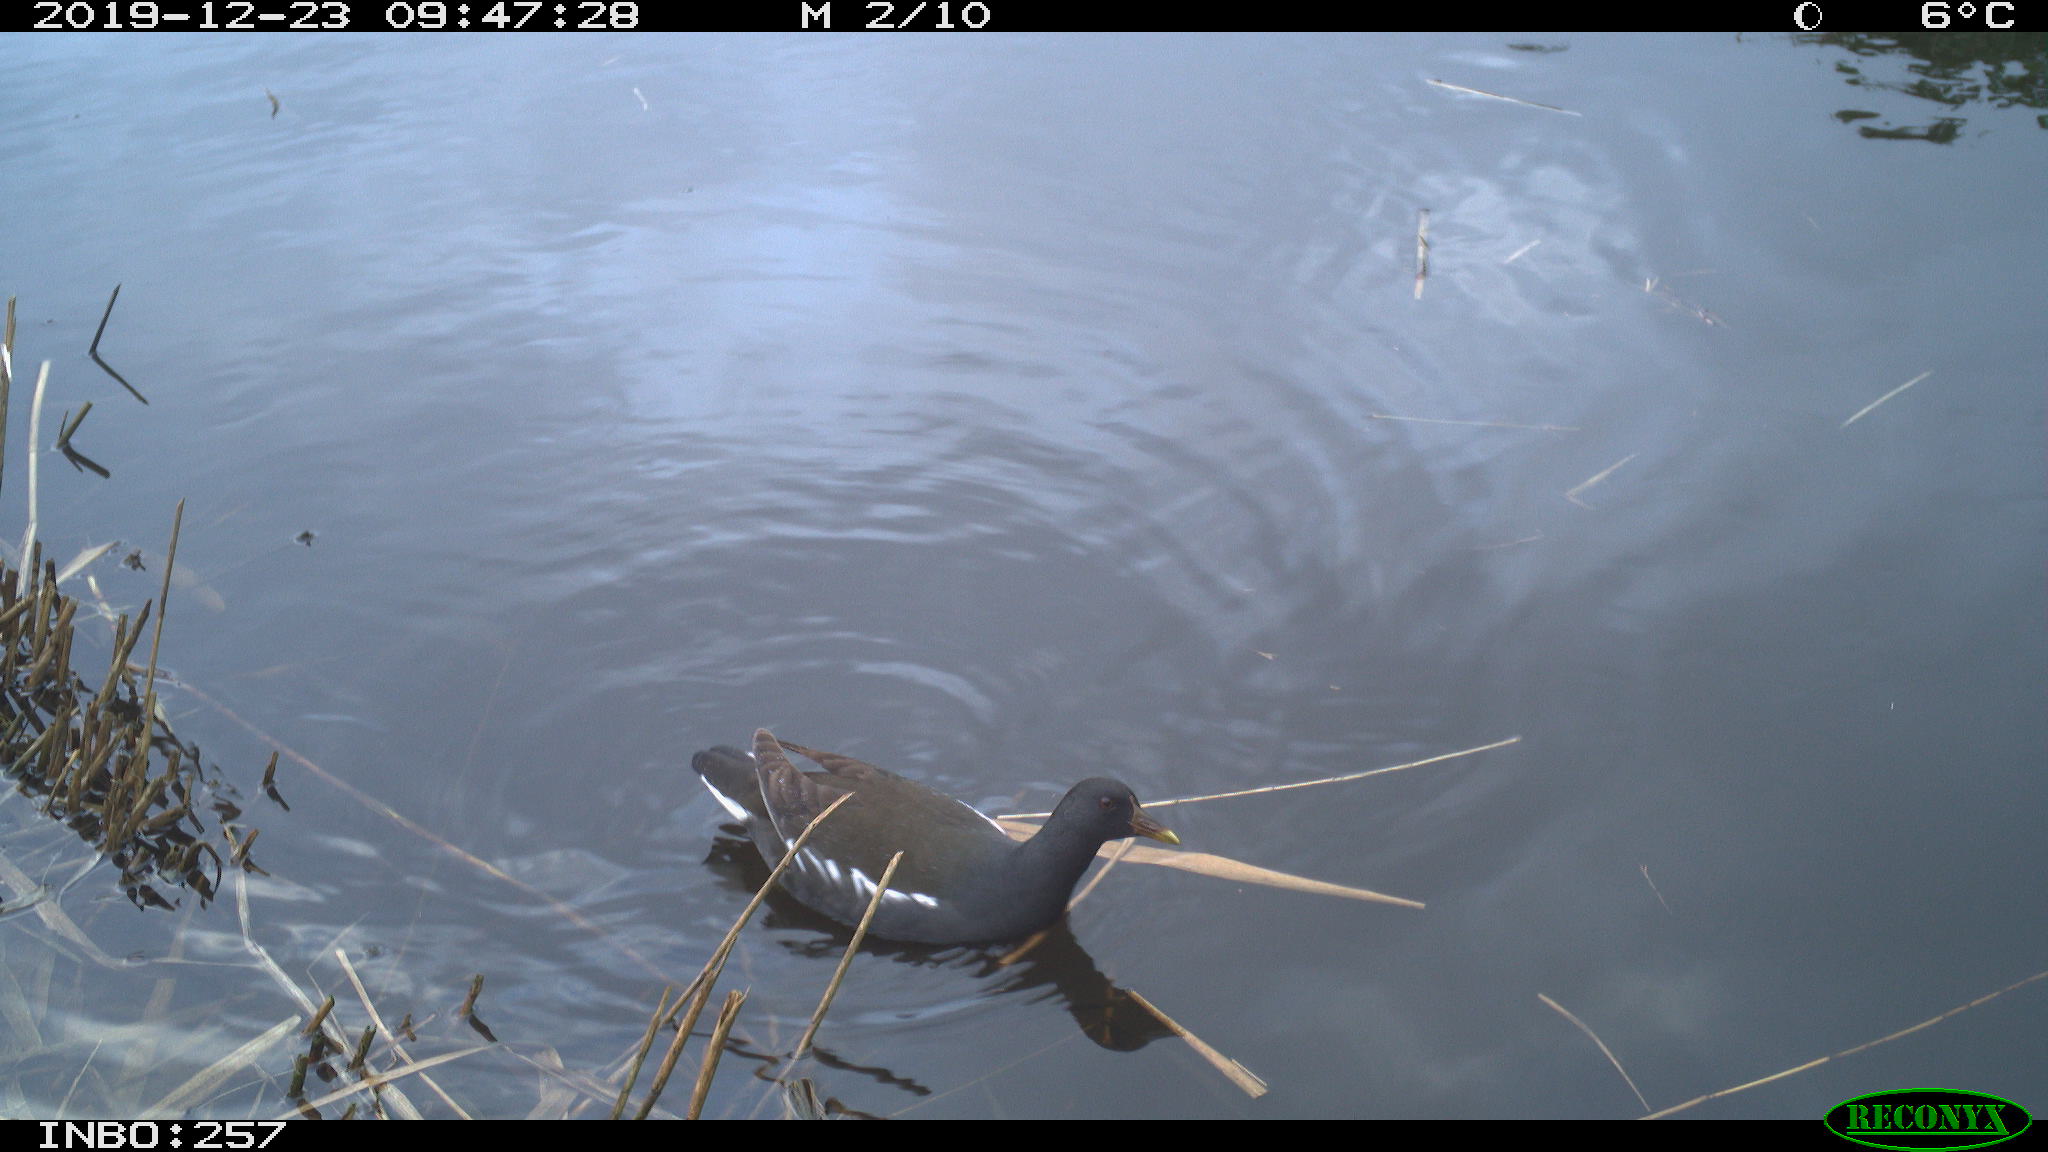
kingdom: Animalia
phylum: Chordata
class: Aves
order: Gruiformes
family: Rallidae
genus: Gallinula
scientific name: Gallinula chloropus
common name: Common moorhen
